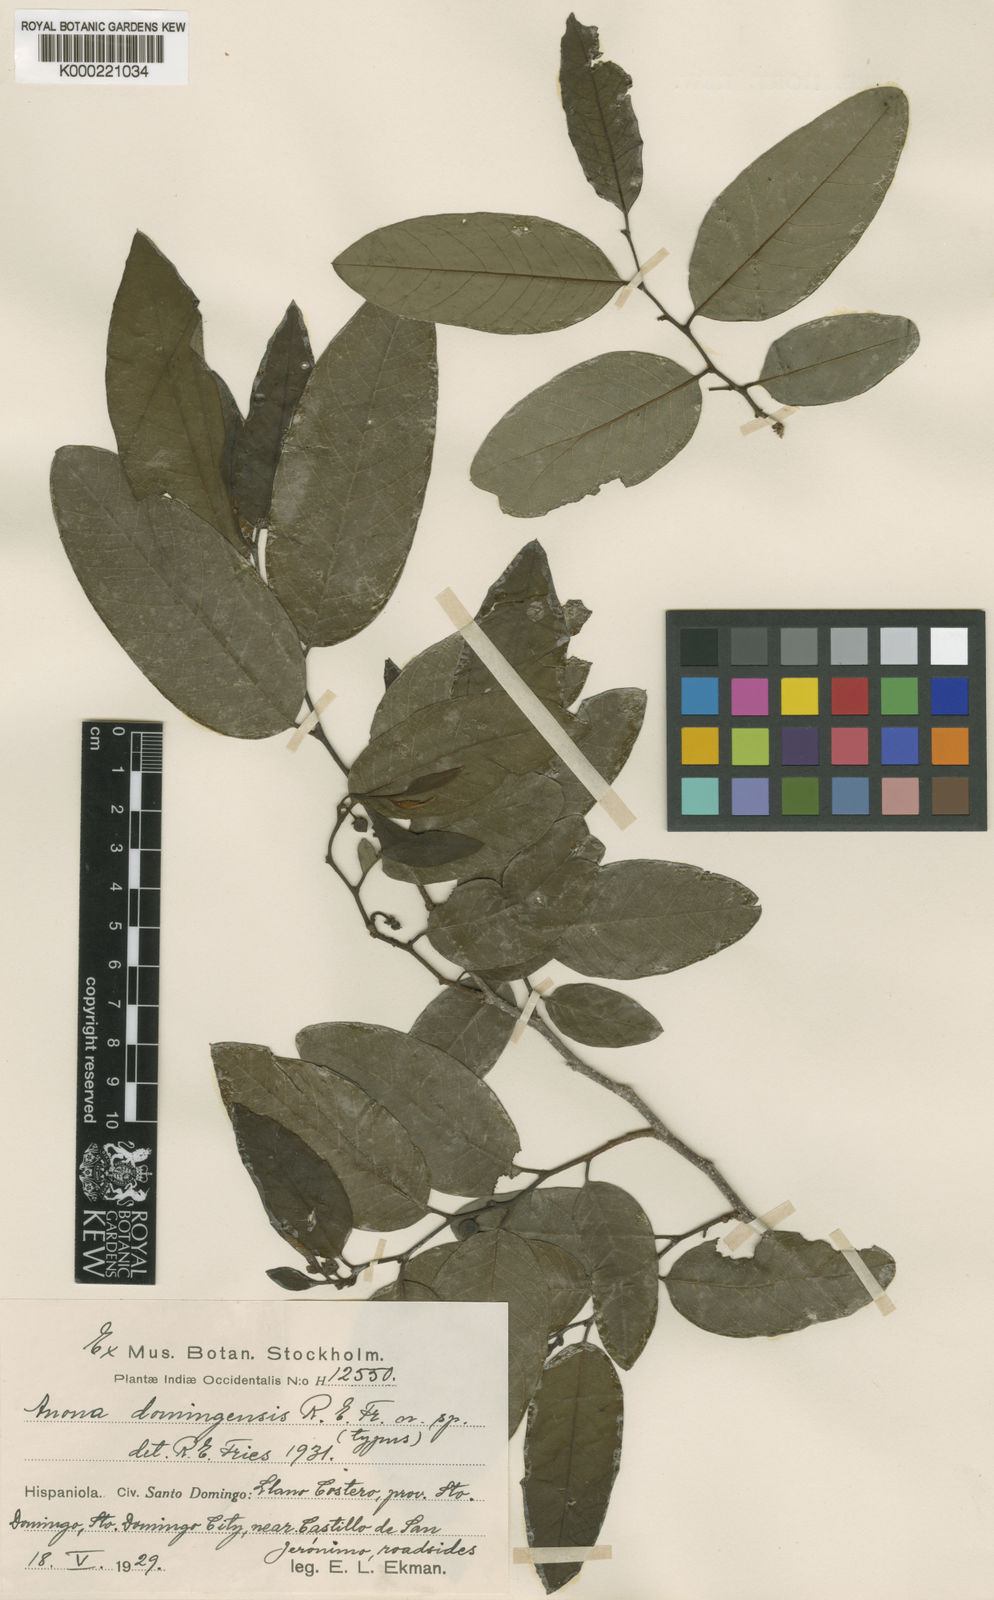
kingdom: Plantae
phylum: Tracheophyta
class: Magnoliopsida
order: Magnoliales
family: Annonaceae
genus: Annona
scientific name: Annona rosei
